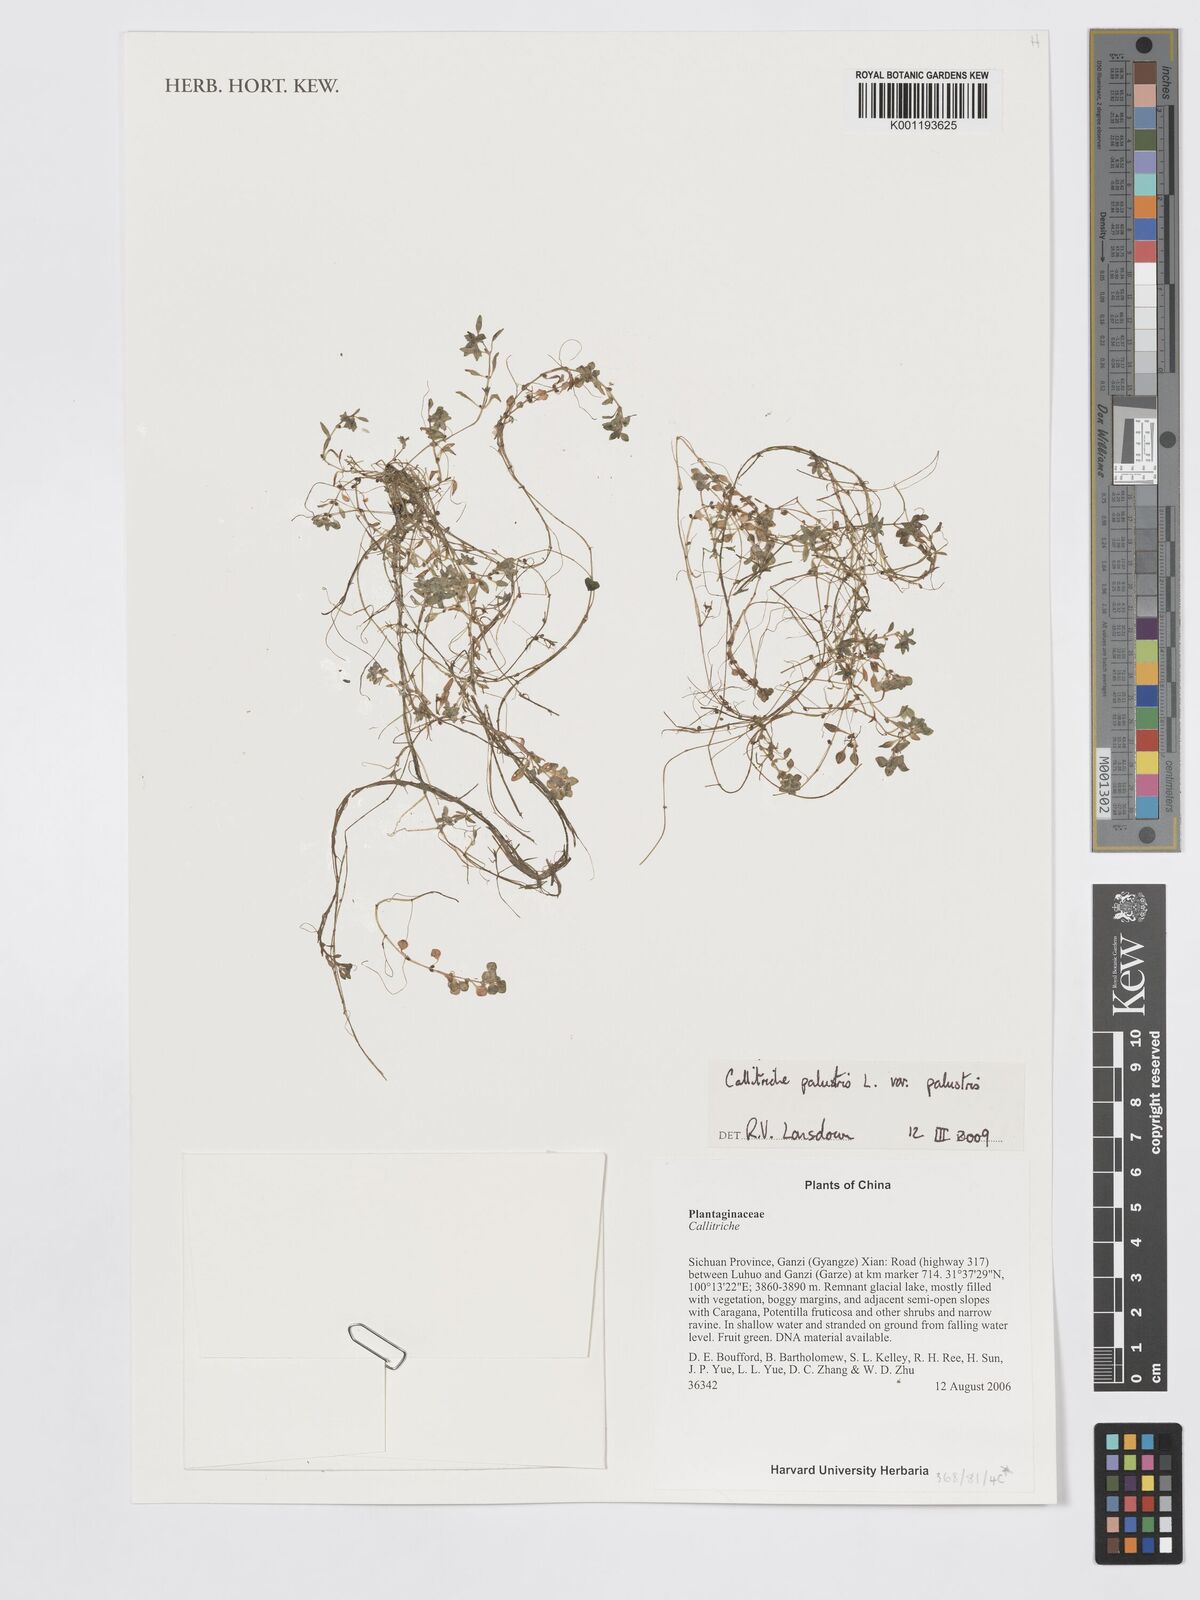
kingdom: Plantae
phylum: Tracheophyta
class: Magnoliopsida
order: Lamiales
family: Plantaginaceae
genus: Callitriche
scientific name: Callitriche palustris
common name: Spring water-starwort
